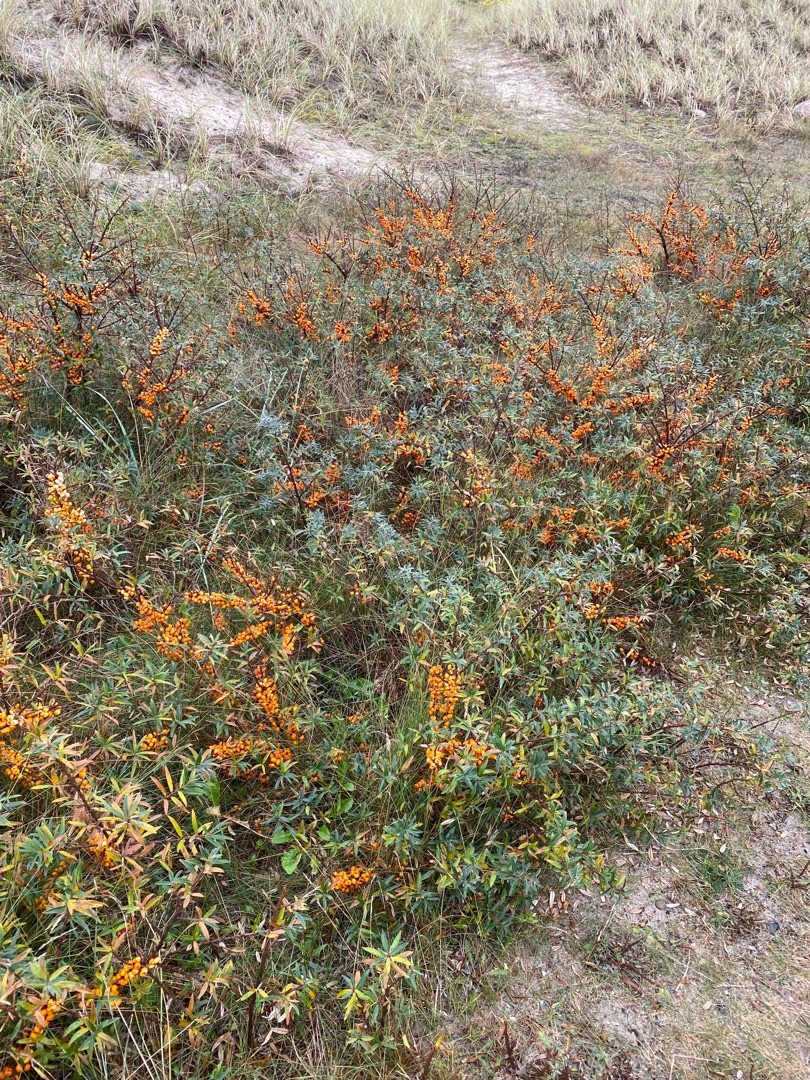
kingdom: Plantae
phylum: Tracheophyta
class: Magnoliopsida
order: Rosales
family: Elaeagnaceae
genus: Hippophae
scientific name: Hippophae rhamnoides
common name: Havtorn
